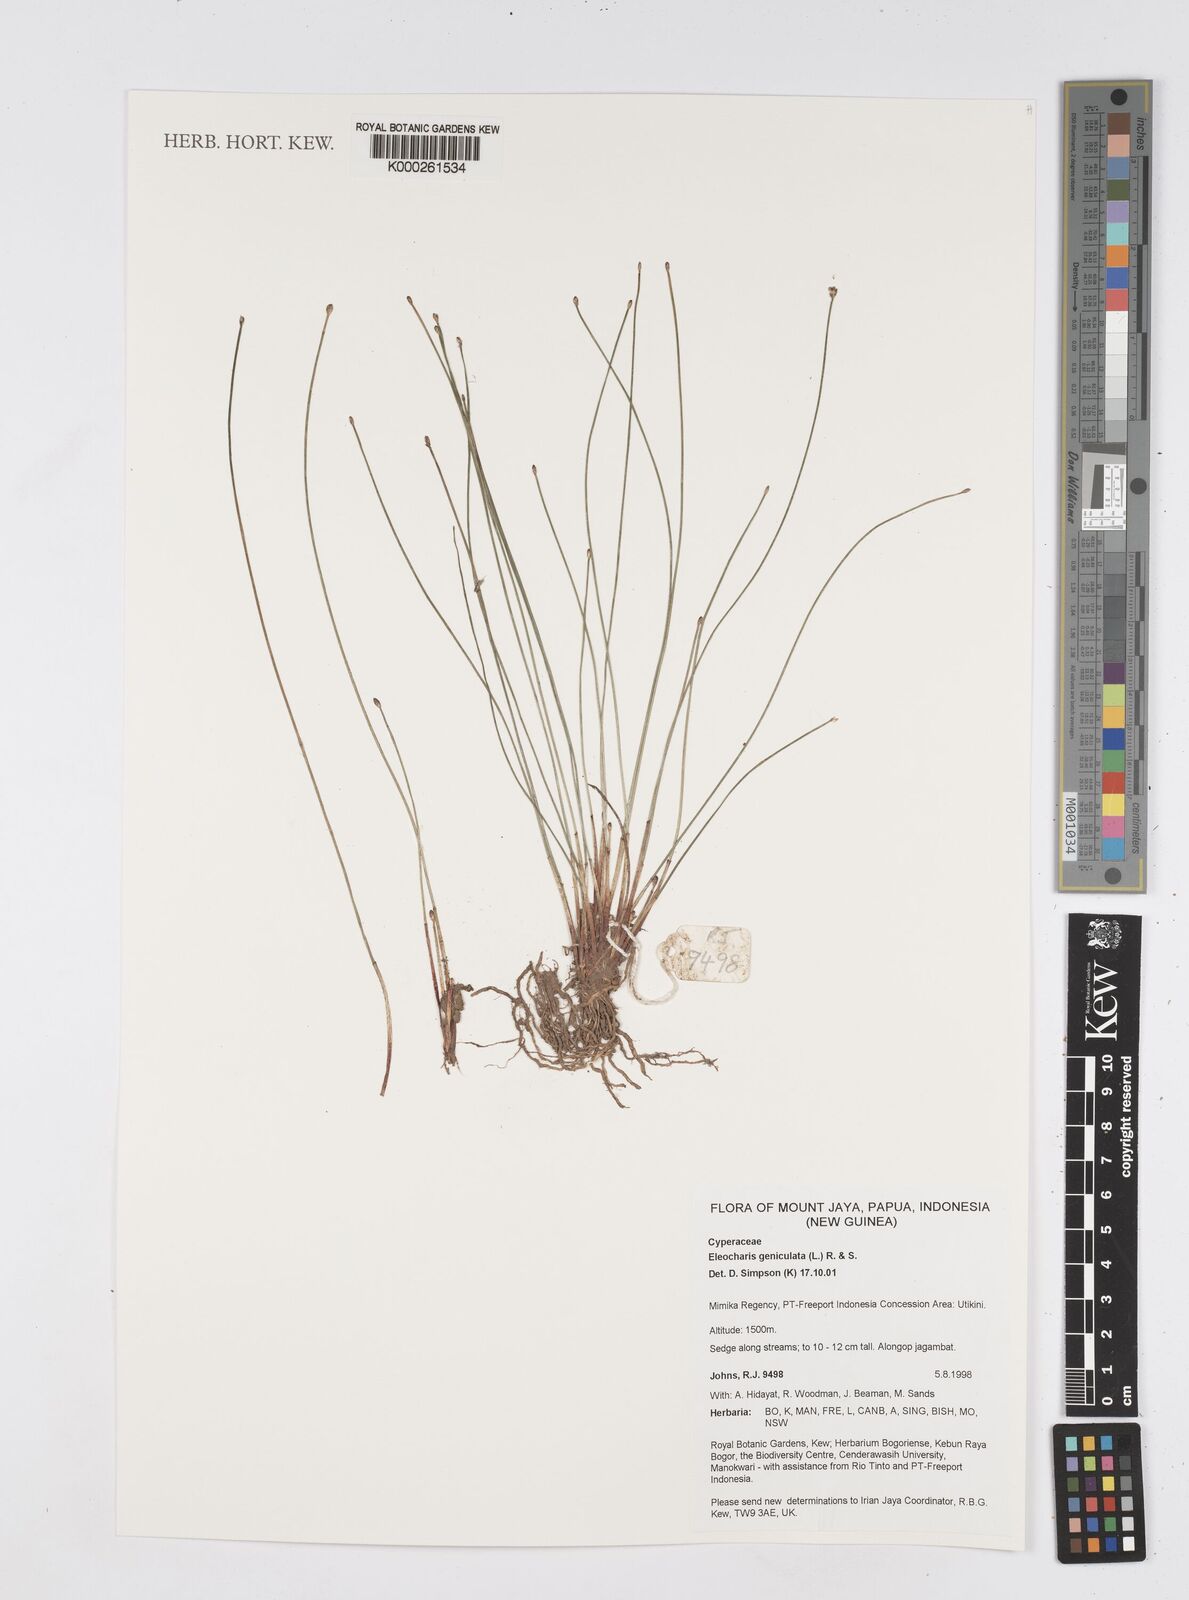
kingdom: Plantae
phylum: Tracheophyta
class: Liliopsida
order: Poales
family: Cyperaceae
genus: Eleocharis
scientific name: Eleocharis geniculata
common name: Canada spikesedge
